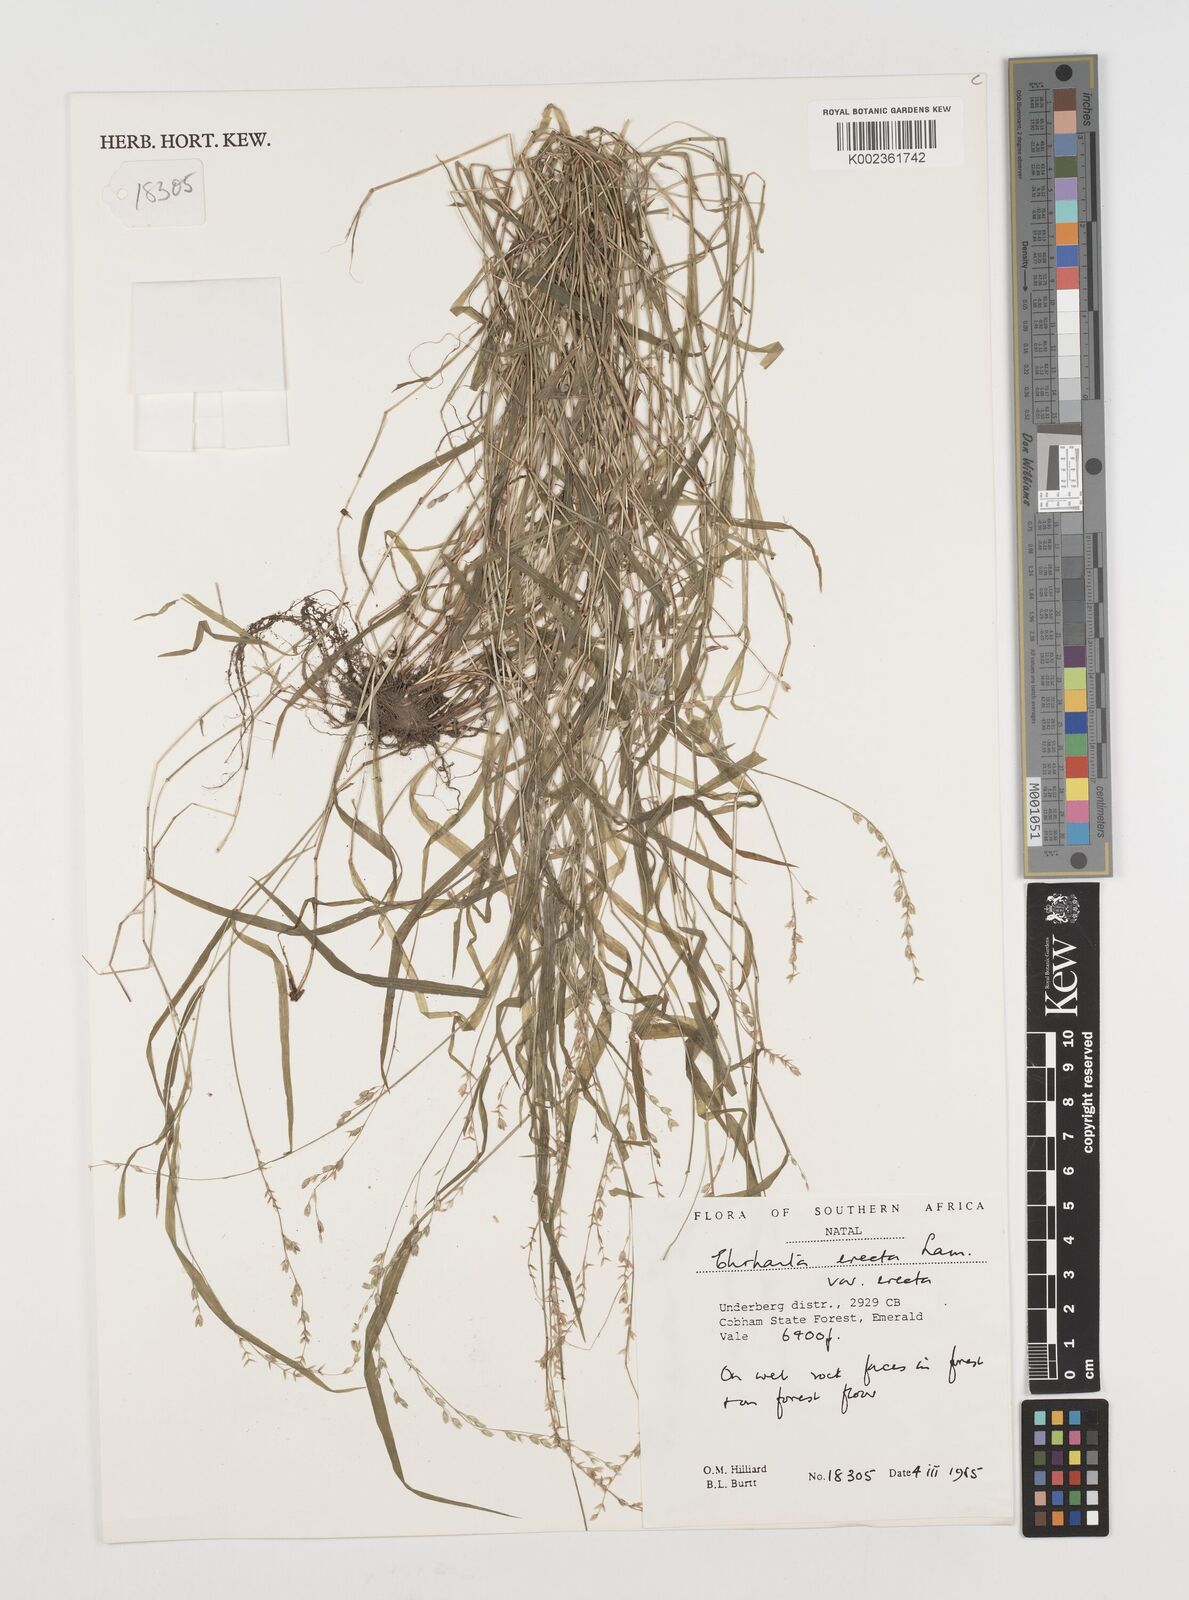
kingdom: Plantae
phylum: Tracheophyta
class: Liliopsida
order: Poales
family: Poaceae
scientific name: Poaceae
